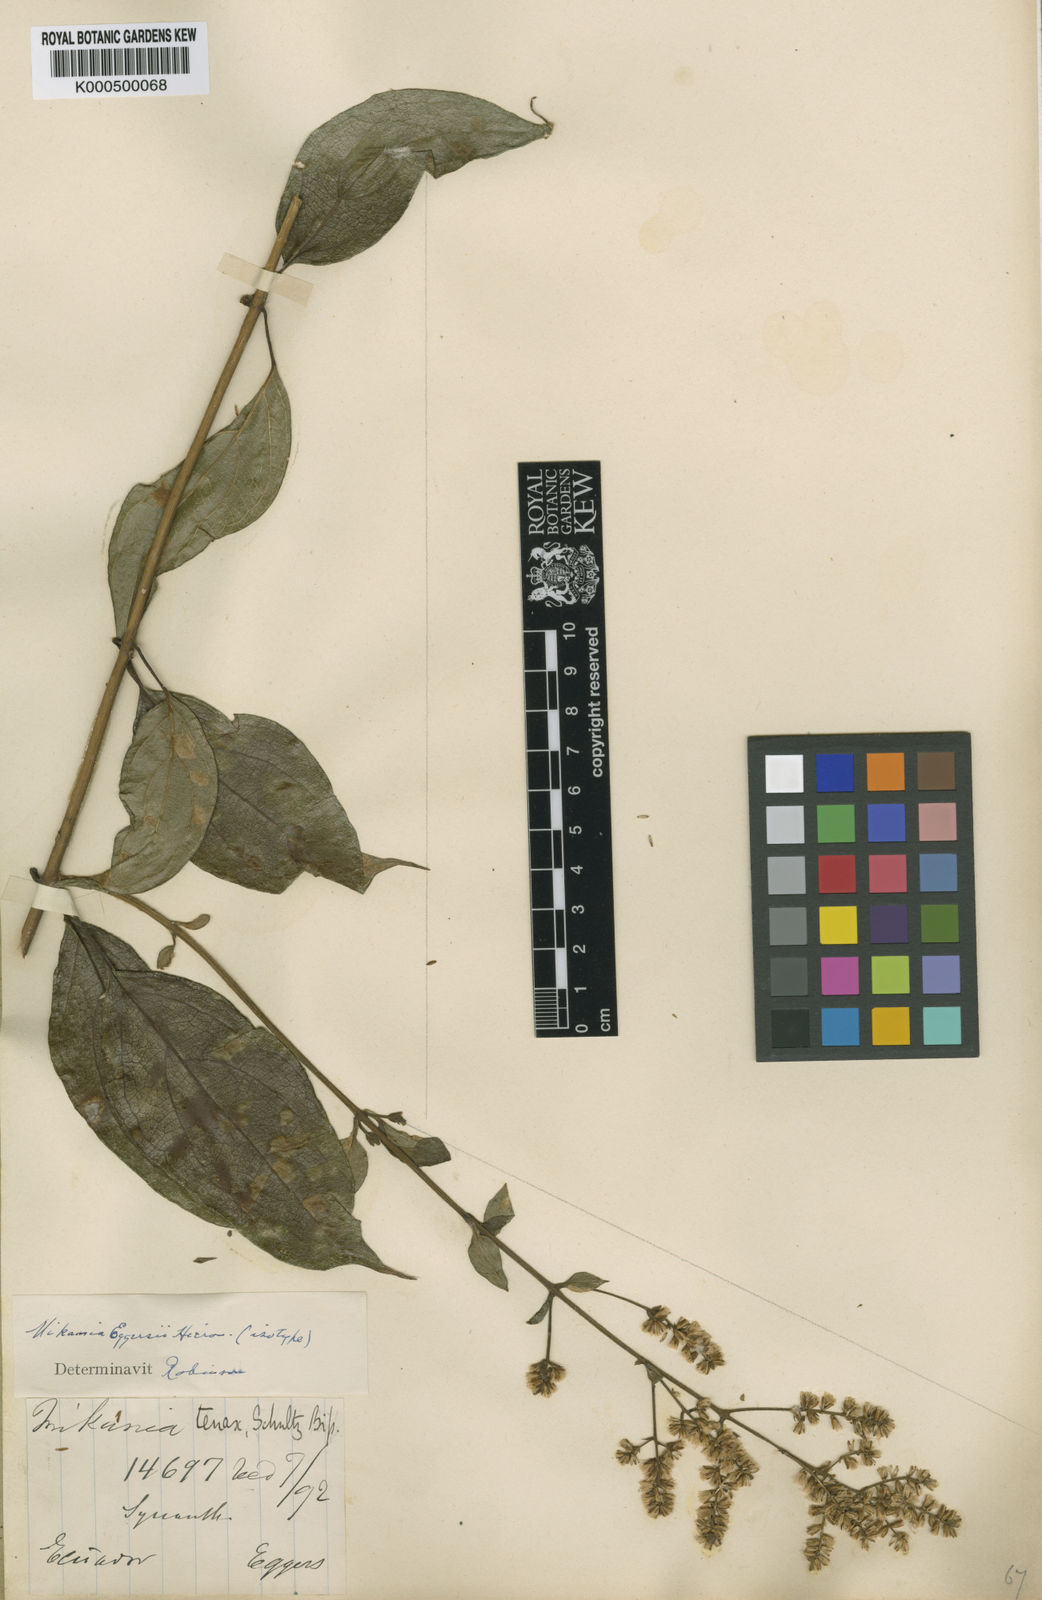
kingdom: Plantae
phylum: Tracheophyta
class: Magnoliopsida
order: Asterales
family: Asteraceae
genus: Mikania
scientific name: Mikania leiostachya
